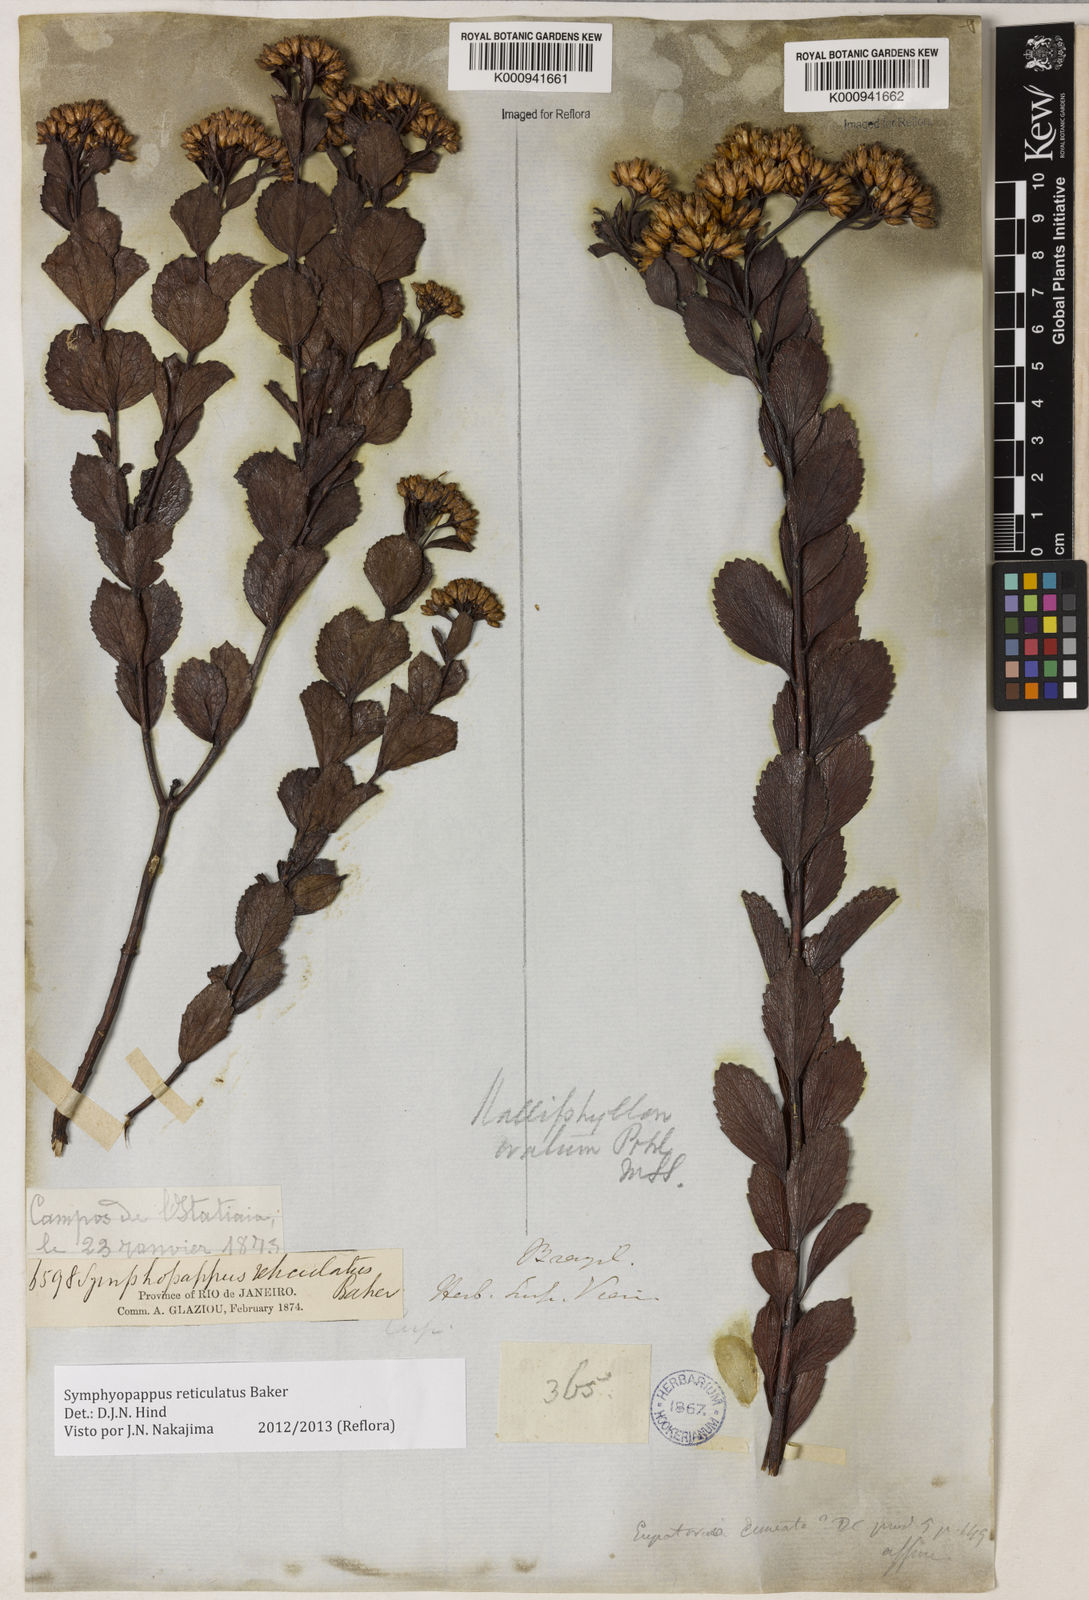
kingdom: Plantae
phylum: Tracheophyta
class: Magnoliopsida
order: Asterales
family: Asteraceae
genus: Symphyopappus
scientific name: Symphyopappus
